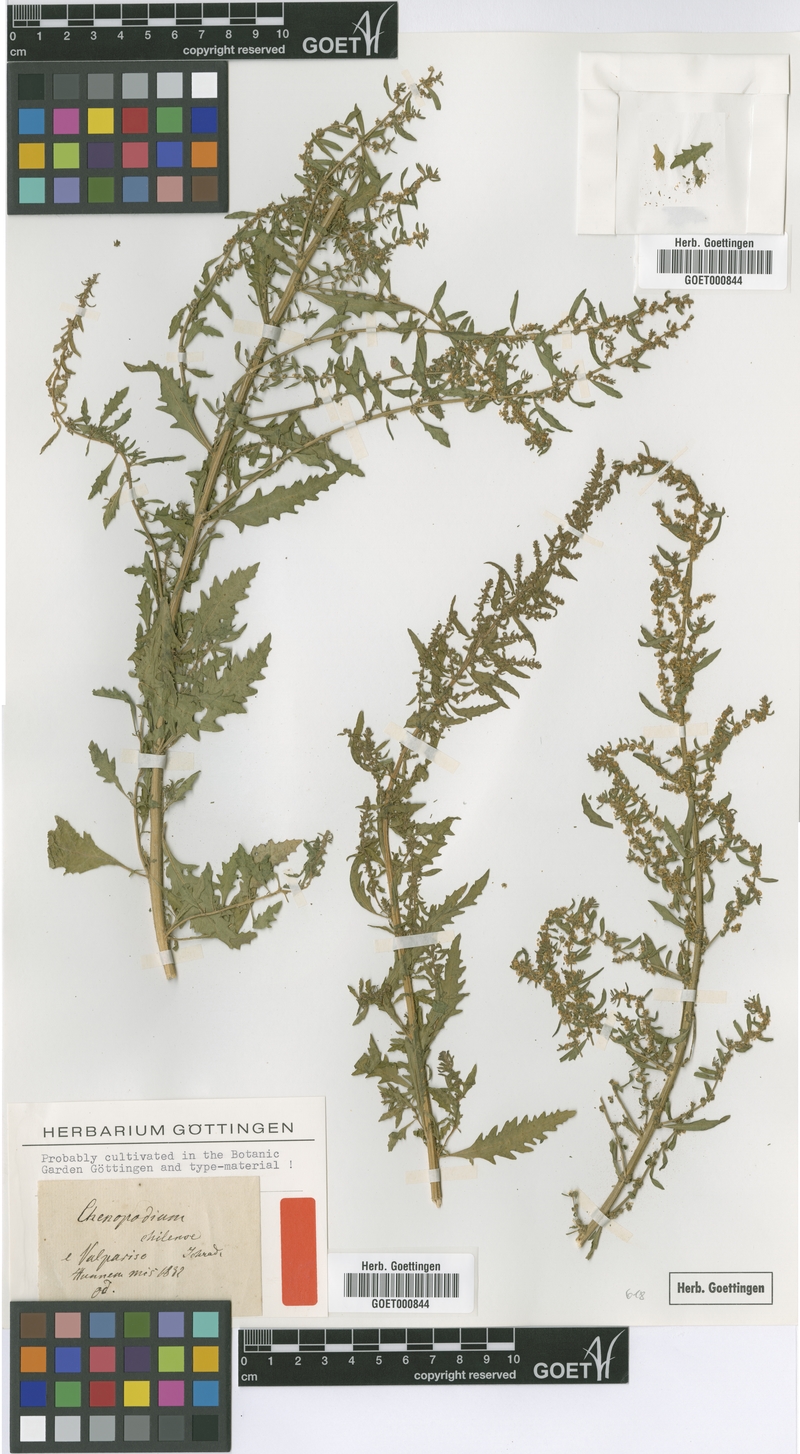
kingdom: Plantae
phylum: Tracheophyta
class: Magnoliopsida
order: Caryophyllales
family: Amaranthaceae
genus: Dysphania
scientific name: Dysphania chilensis
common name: Chilean wormseed
